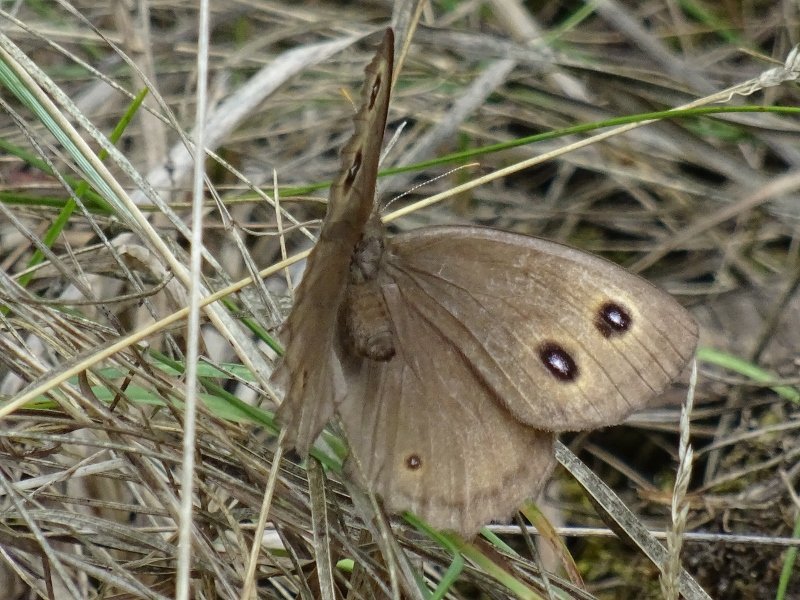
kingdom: Animalia
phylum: Arthropoda
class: Insecta
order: Lepidoptera
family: Nymphalidae
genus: Cercyonis
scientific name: Cercyonis pegala
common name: Common Wood-Nymph
